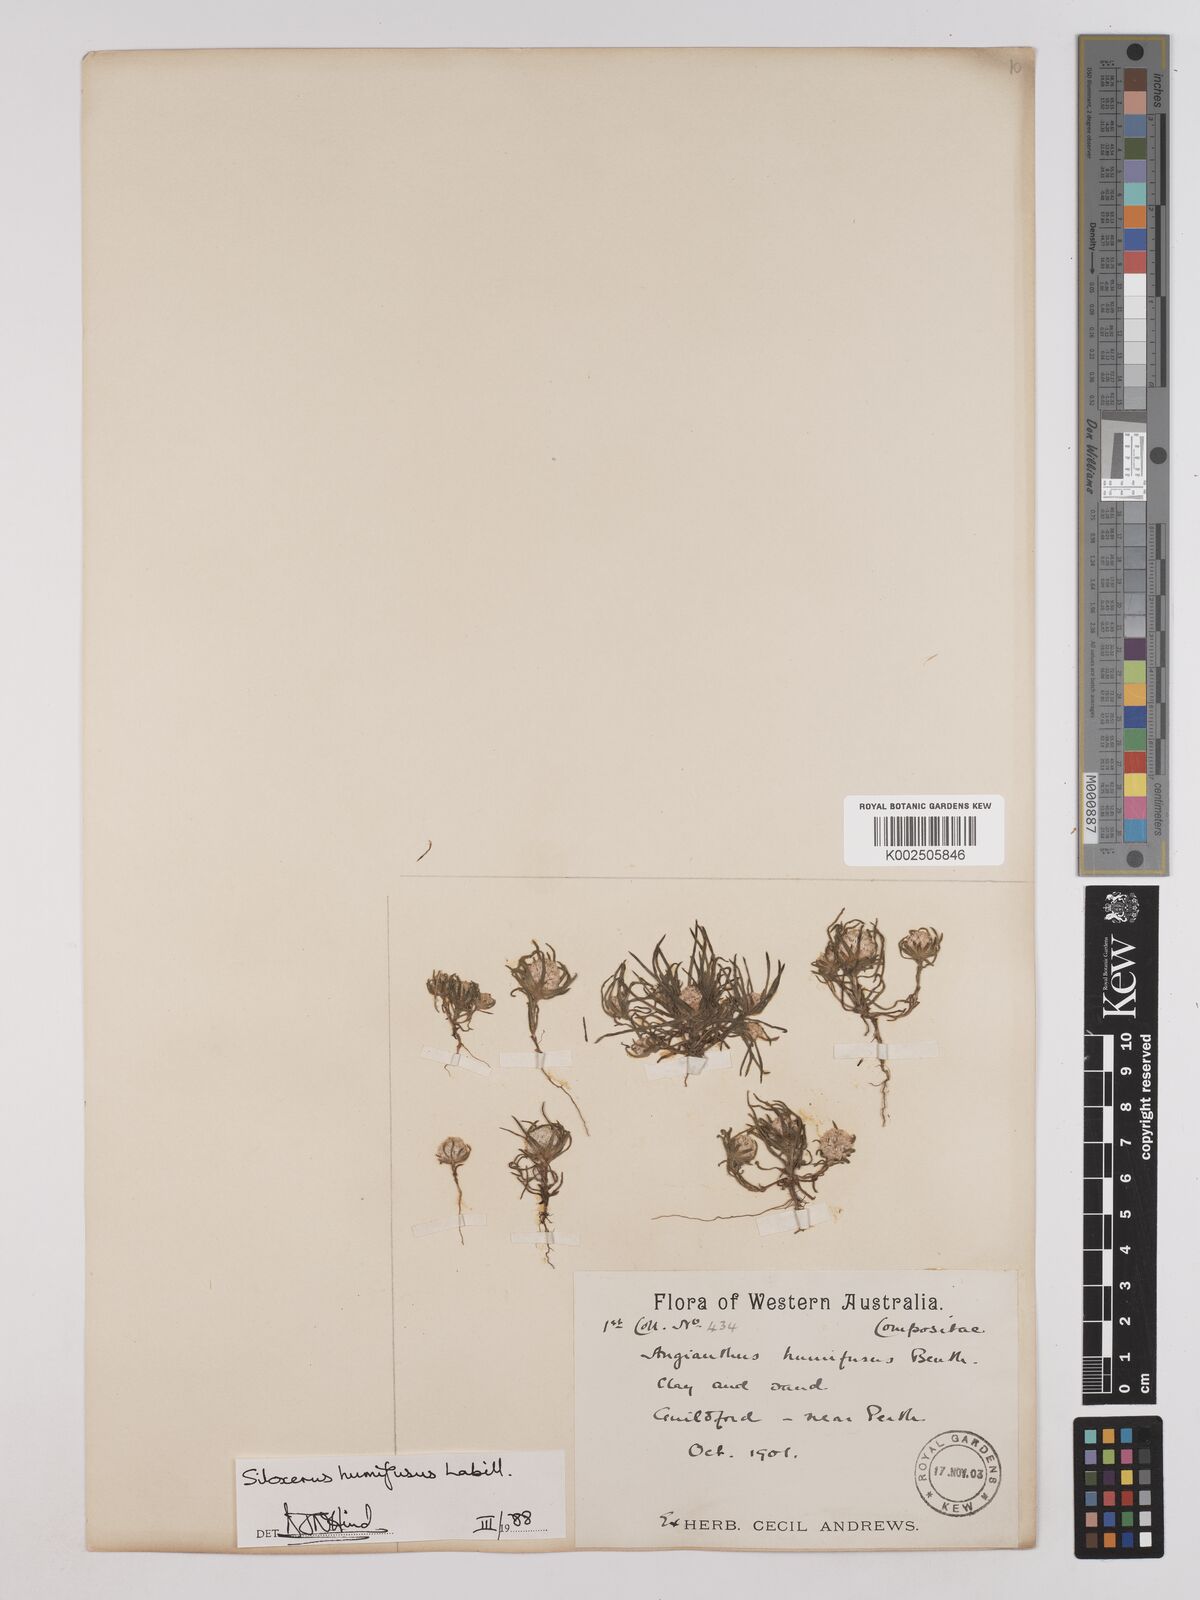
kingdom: Plantae
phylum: Tracheophyta
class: Magnoliopsida
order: Asterales
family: Asteraceae
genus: Siloxerus
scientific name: Siloxerus humifusus
